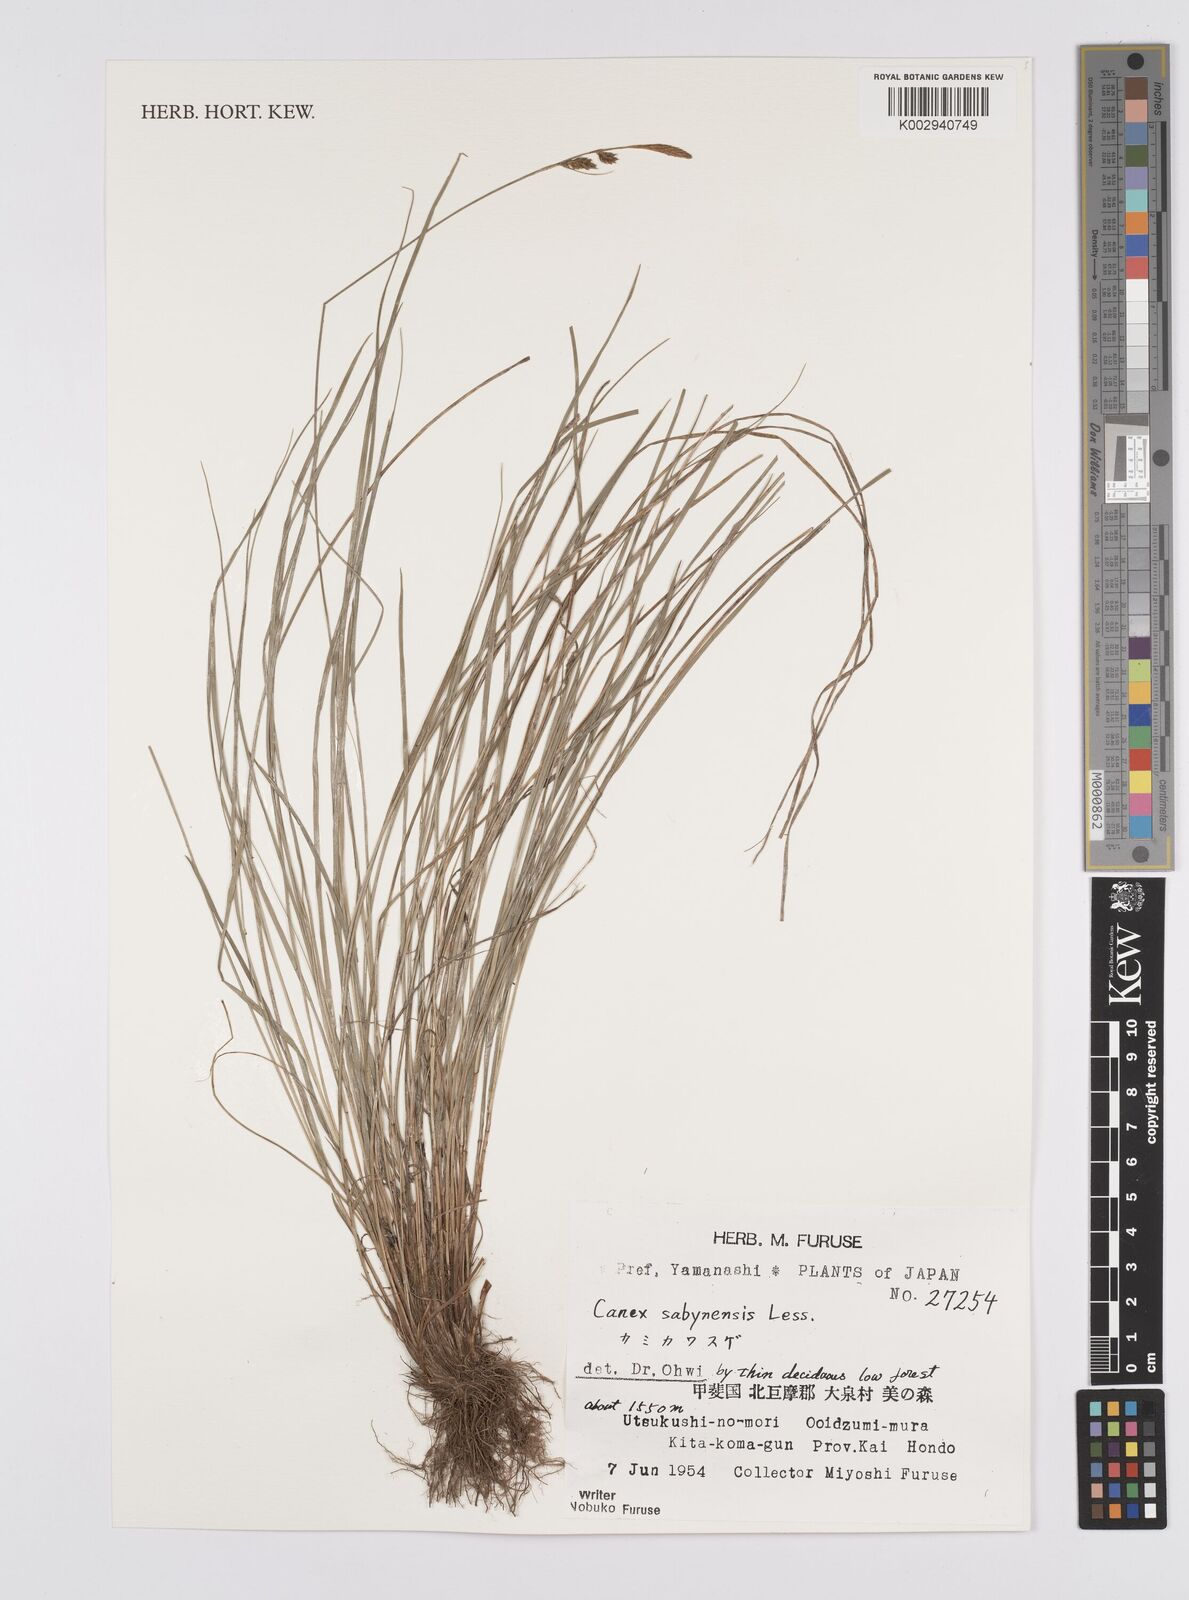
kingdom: Plantae
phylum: Tracheophyta
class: Liliopsida
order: Poales
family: Cyperaceae
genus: Carex
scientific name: Carex umbrosa
